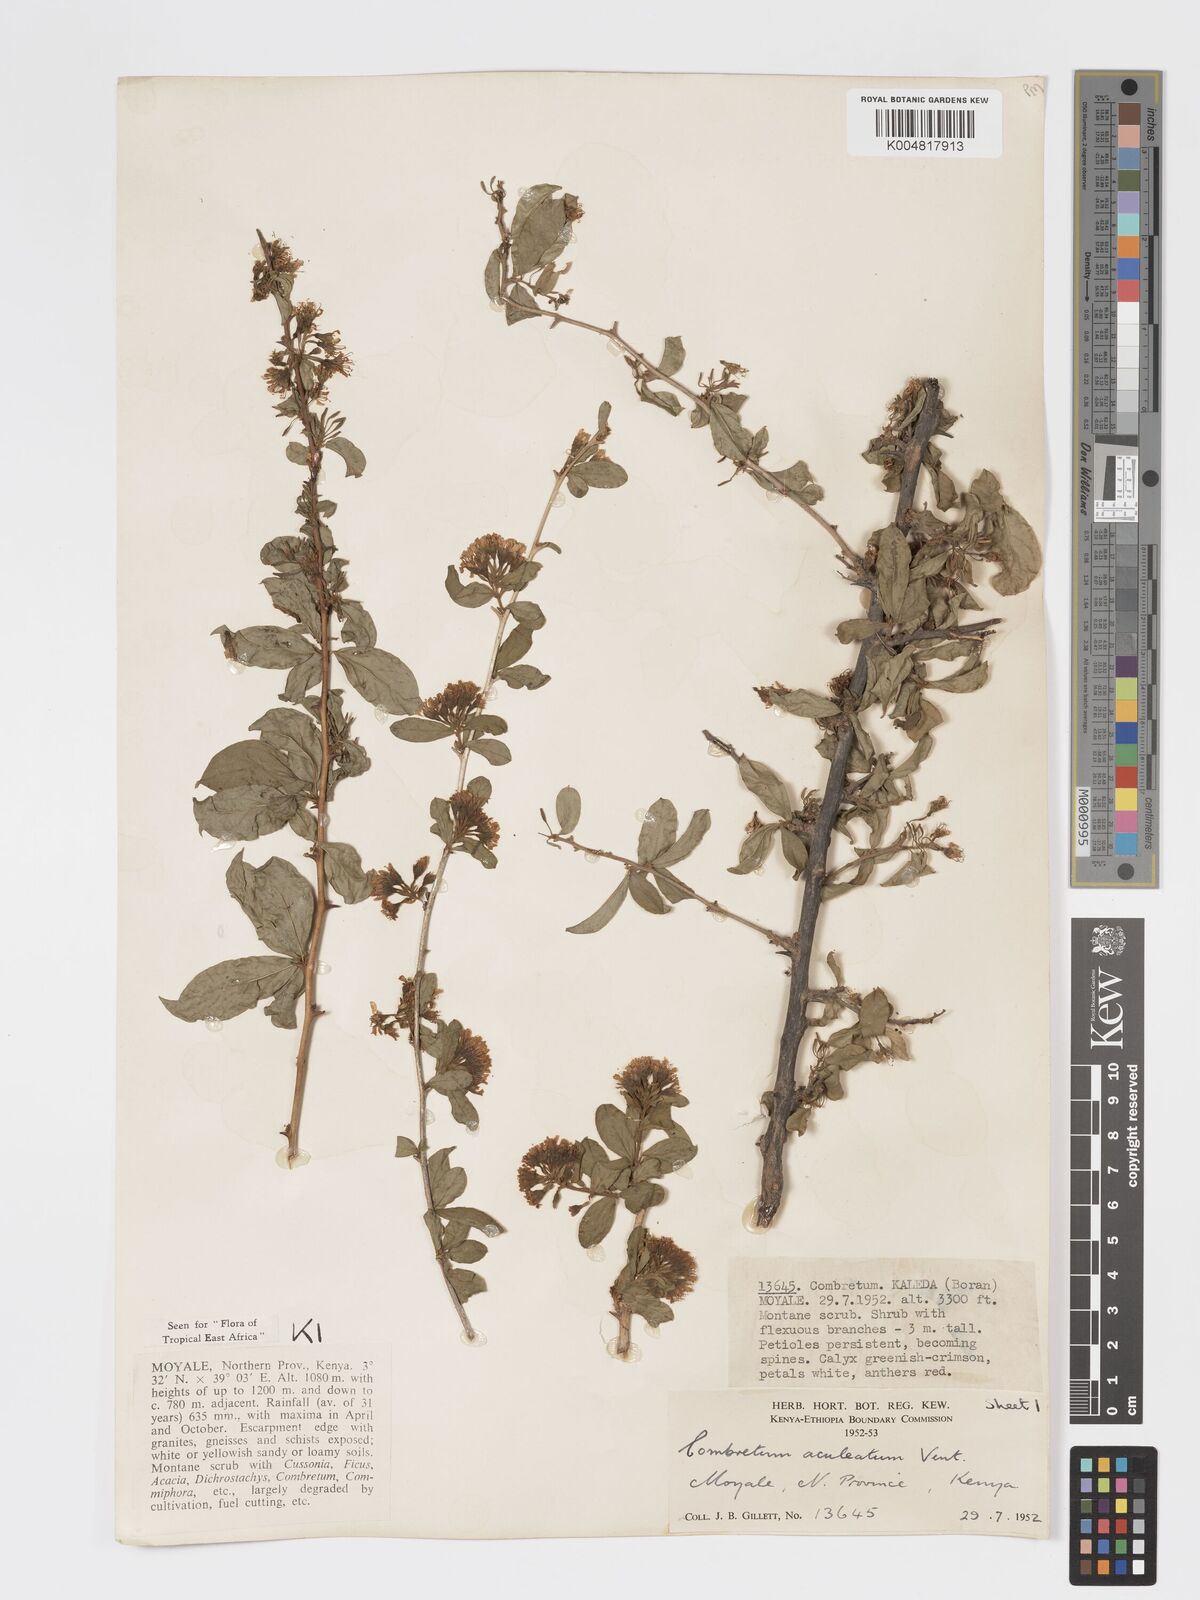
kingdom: Plantae
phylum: Tracheophyta
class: Magnoliopsida
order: Myrtales
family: Combretaceae
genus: Combretum
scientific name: Combretum aculeatum
